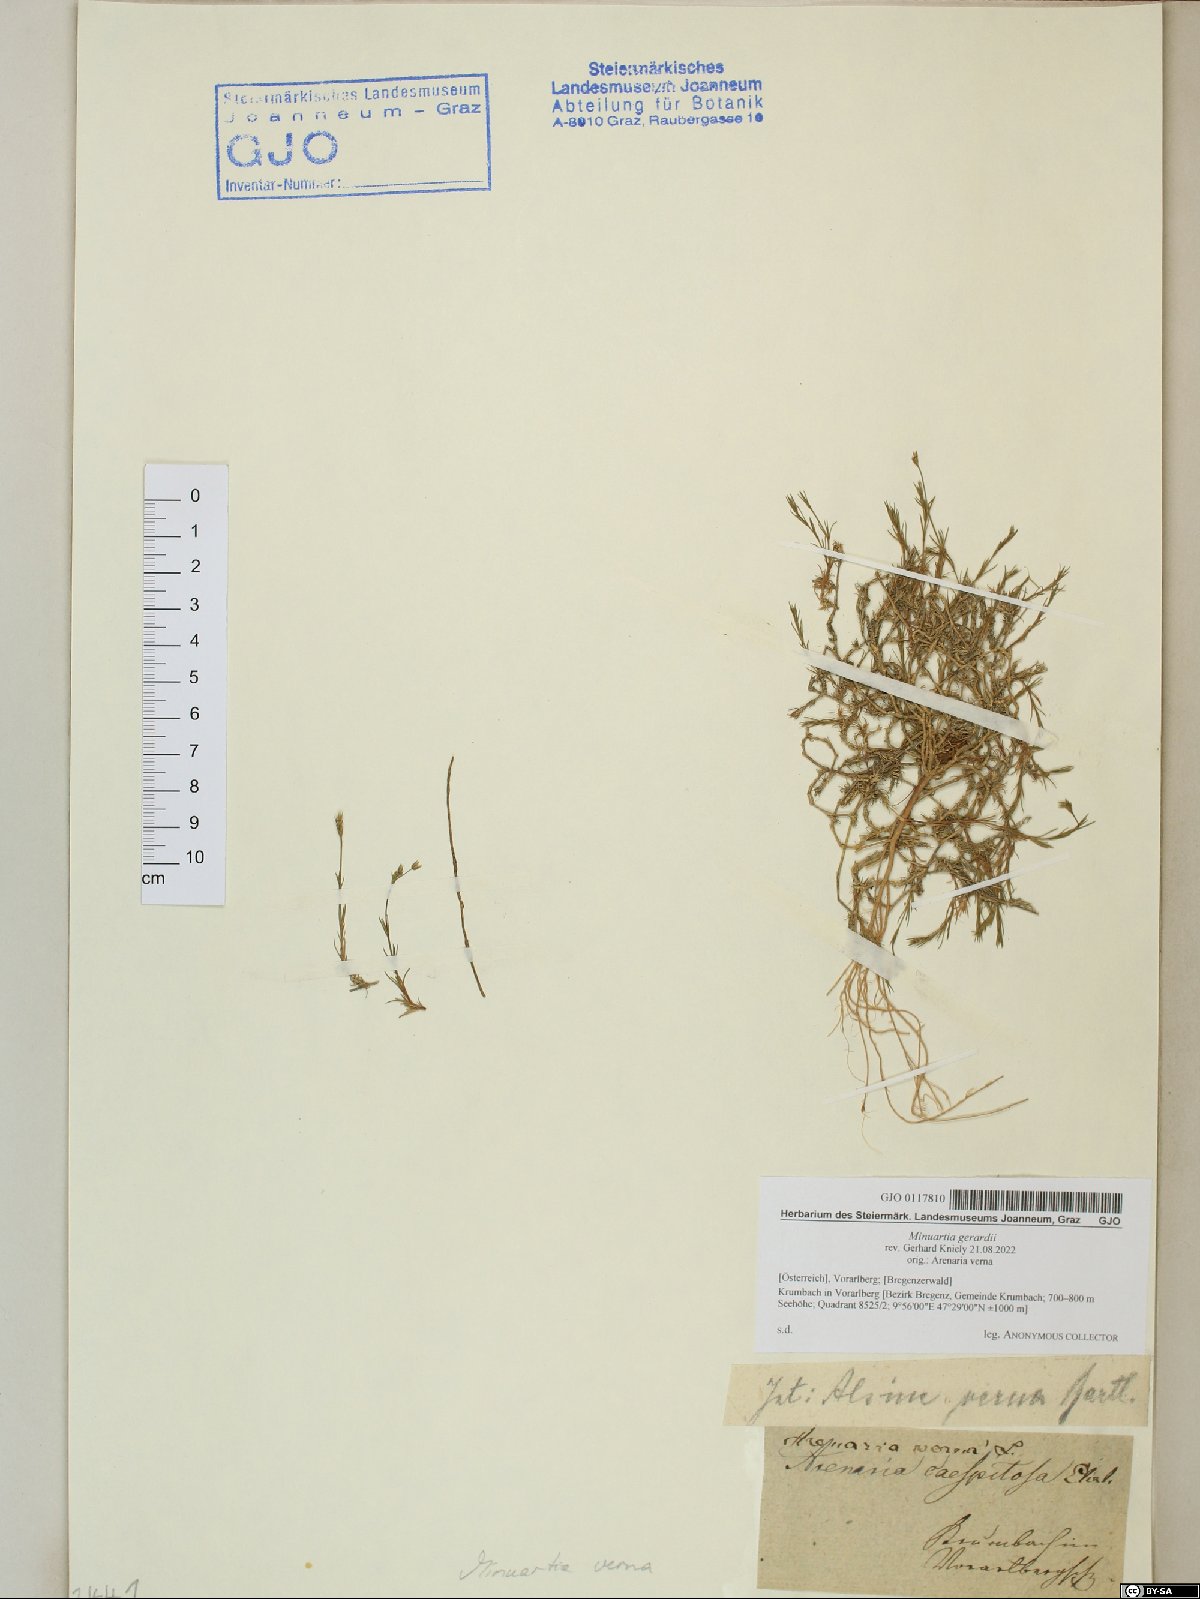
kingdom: Plantae
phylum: Tracheophyta
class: Magnoliopsida
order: Caryophyllales
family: Caryophyllaceae
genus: Sabulina
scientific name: Sabulina verna
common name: Spring sandwort
